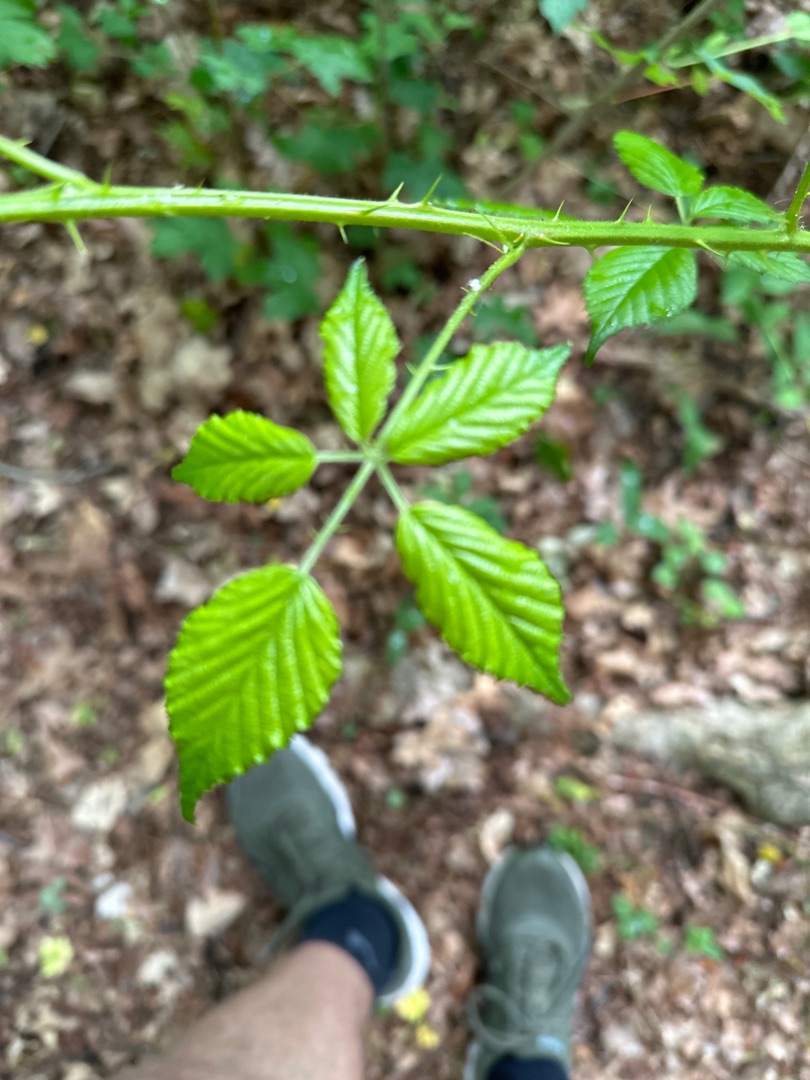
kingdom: Plantae
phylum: Tracheophyta
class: Magnoliopsida
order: Rosales
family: Rosaceae
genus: Rubus
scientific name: Rubus
